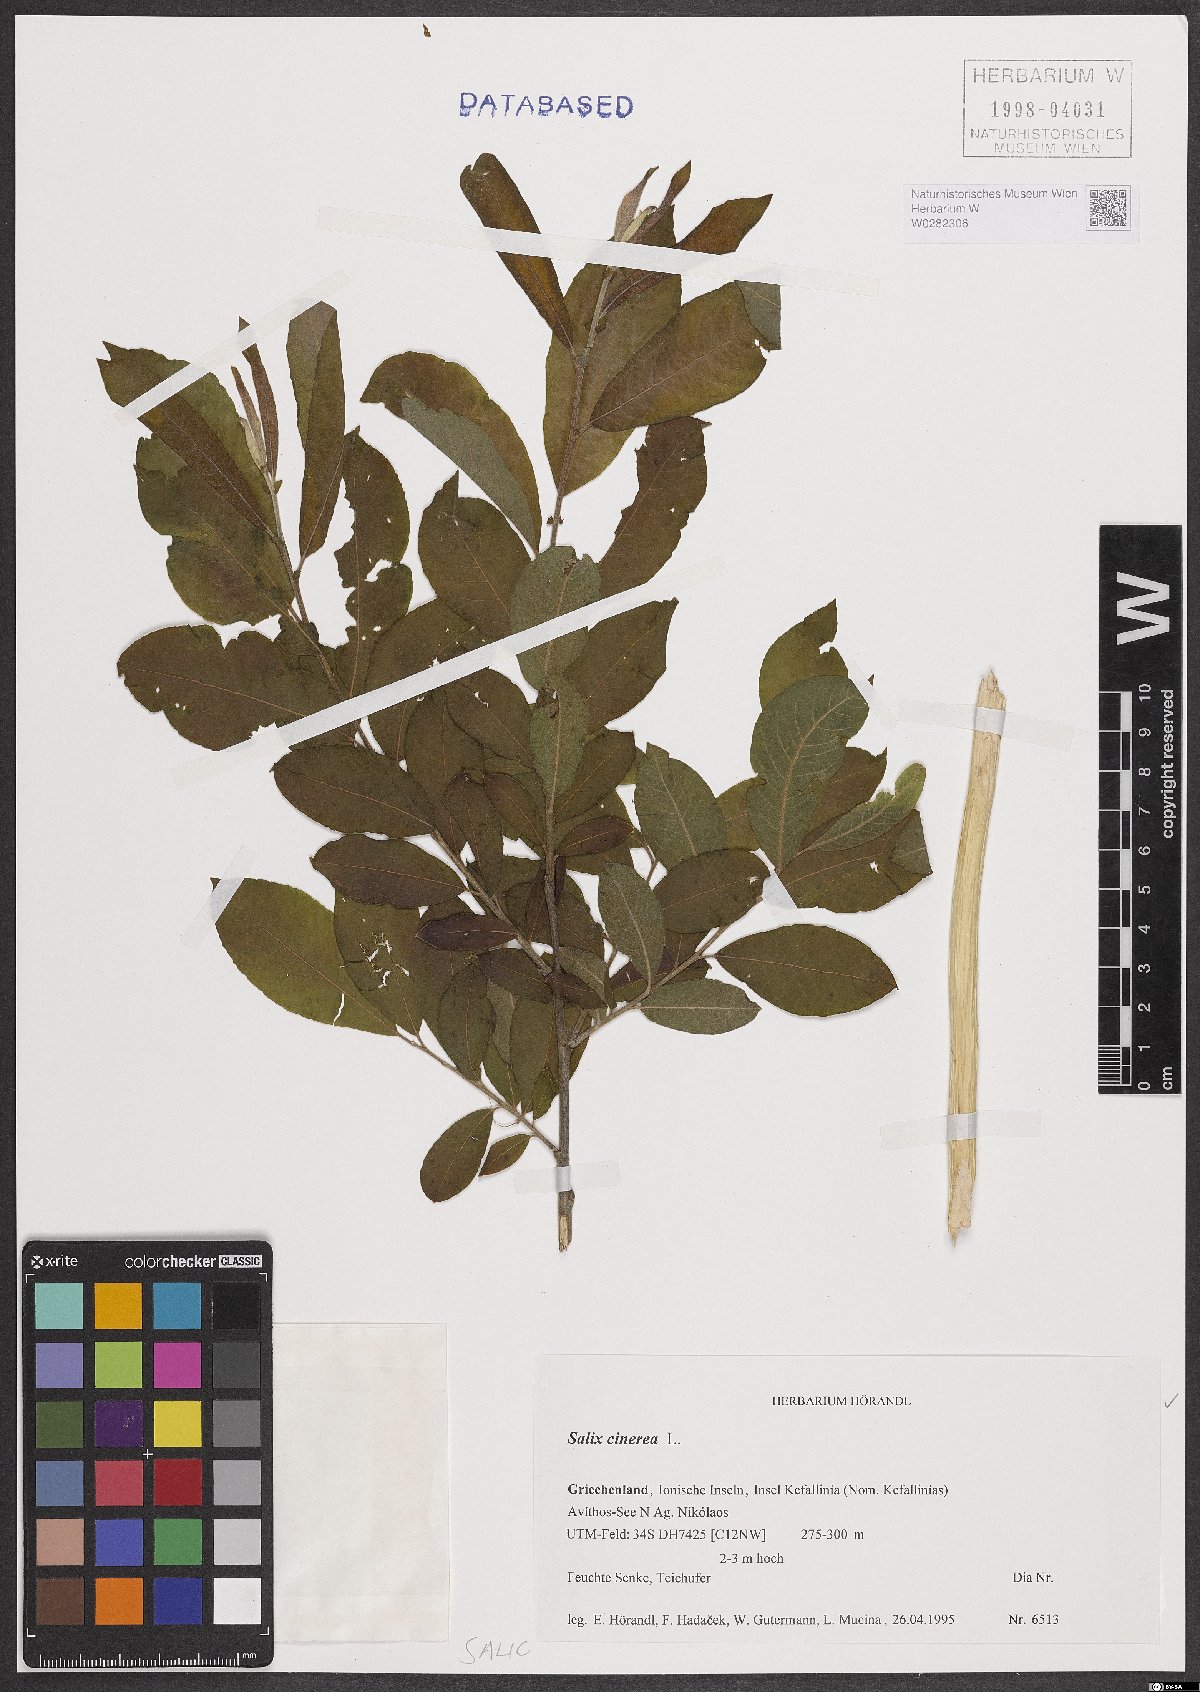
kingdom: Plantae
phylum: Tracheophyta
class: Magnoliopsida
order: Malpighiales
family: Salicaceae
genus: Salix
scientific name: Salix cinerea
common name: Common sallow
